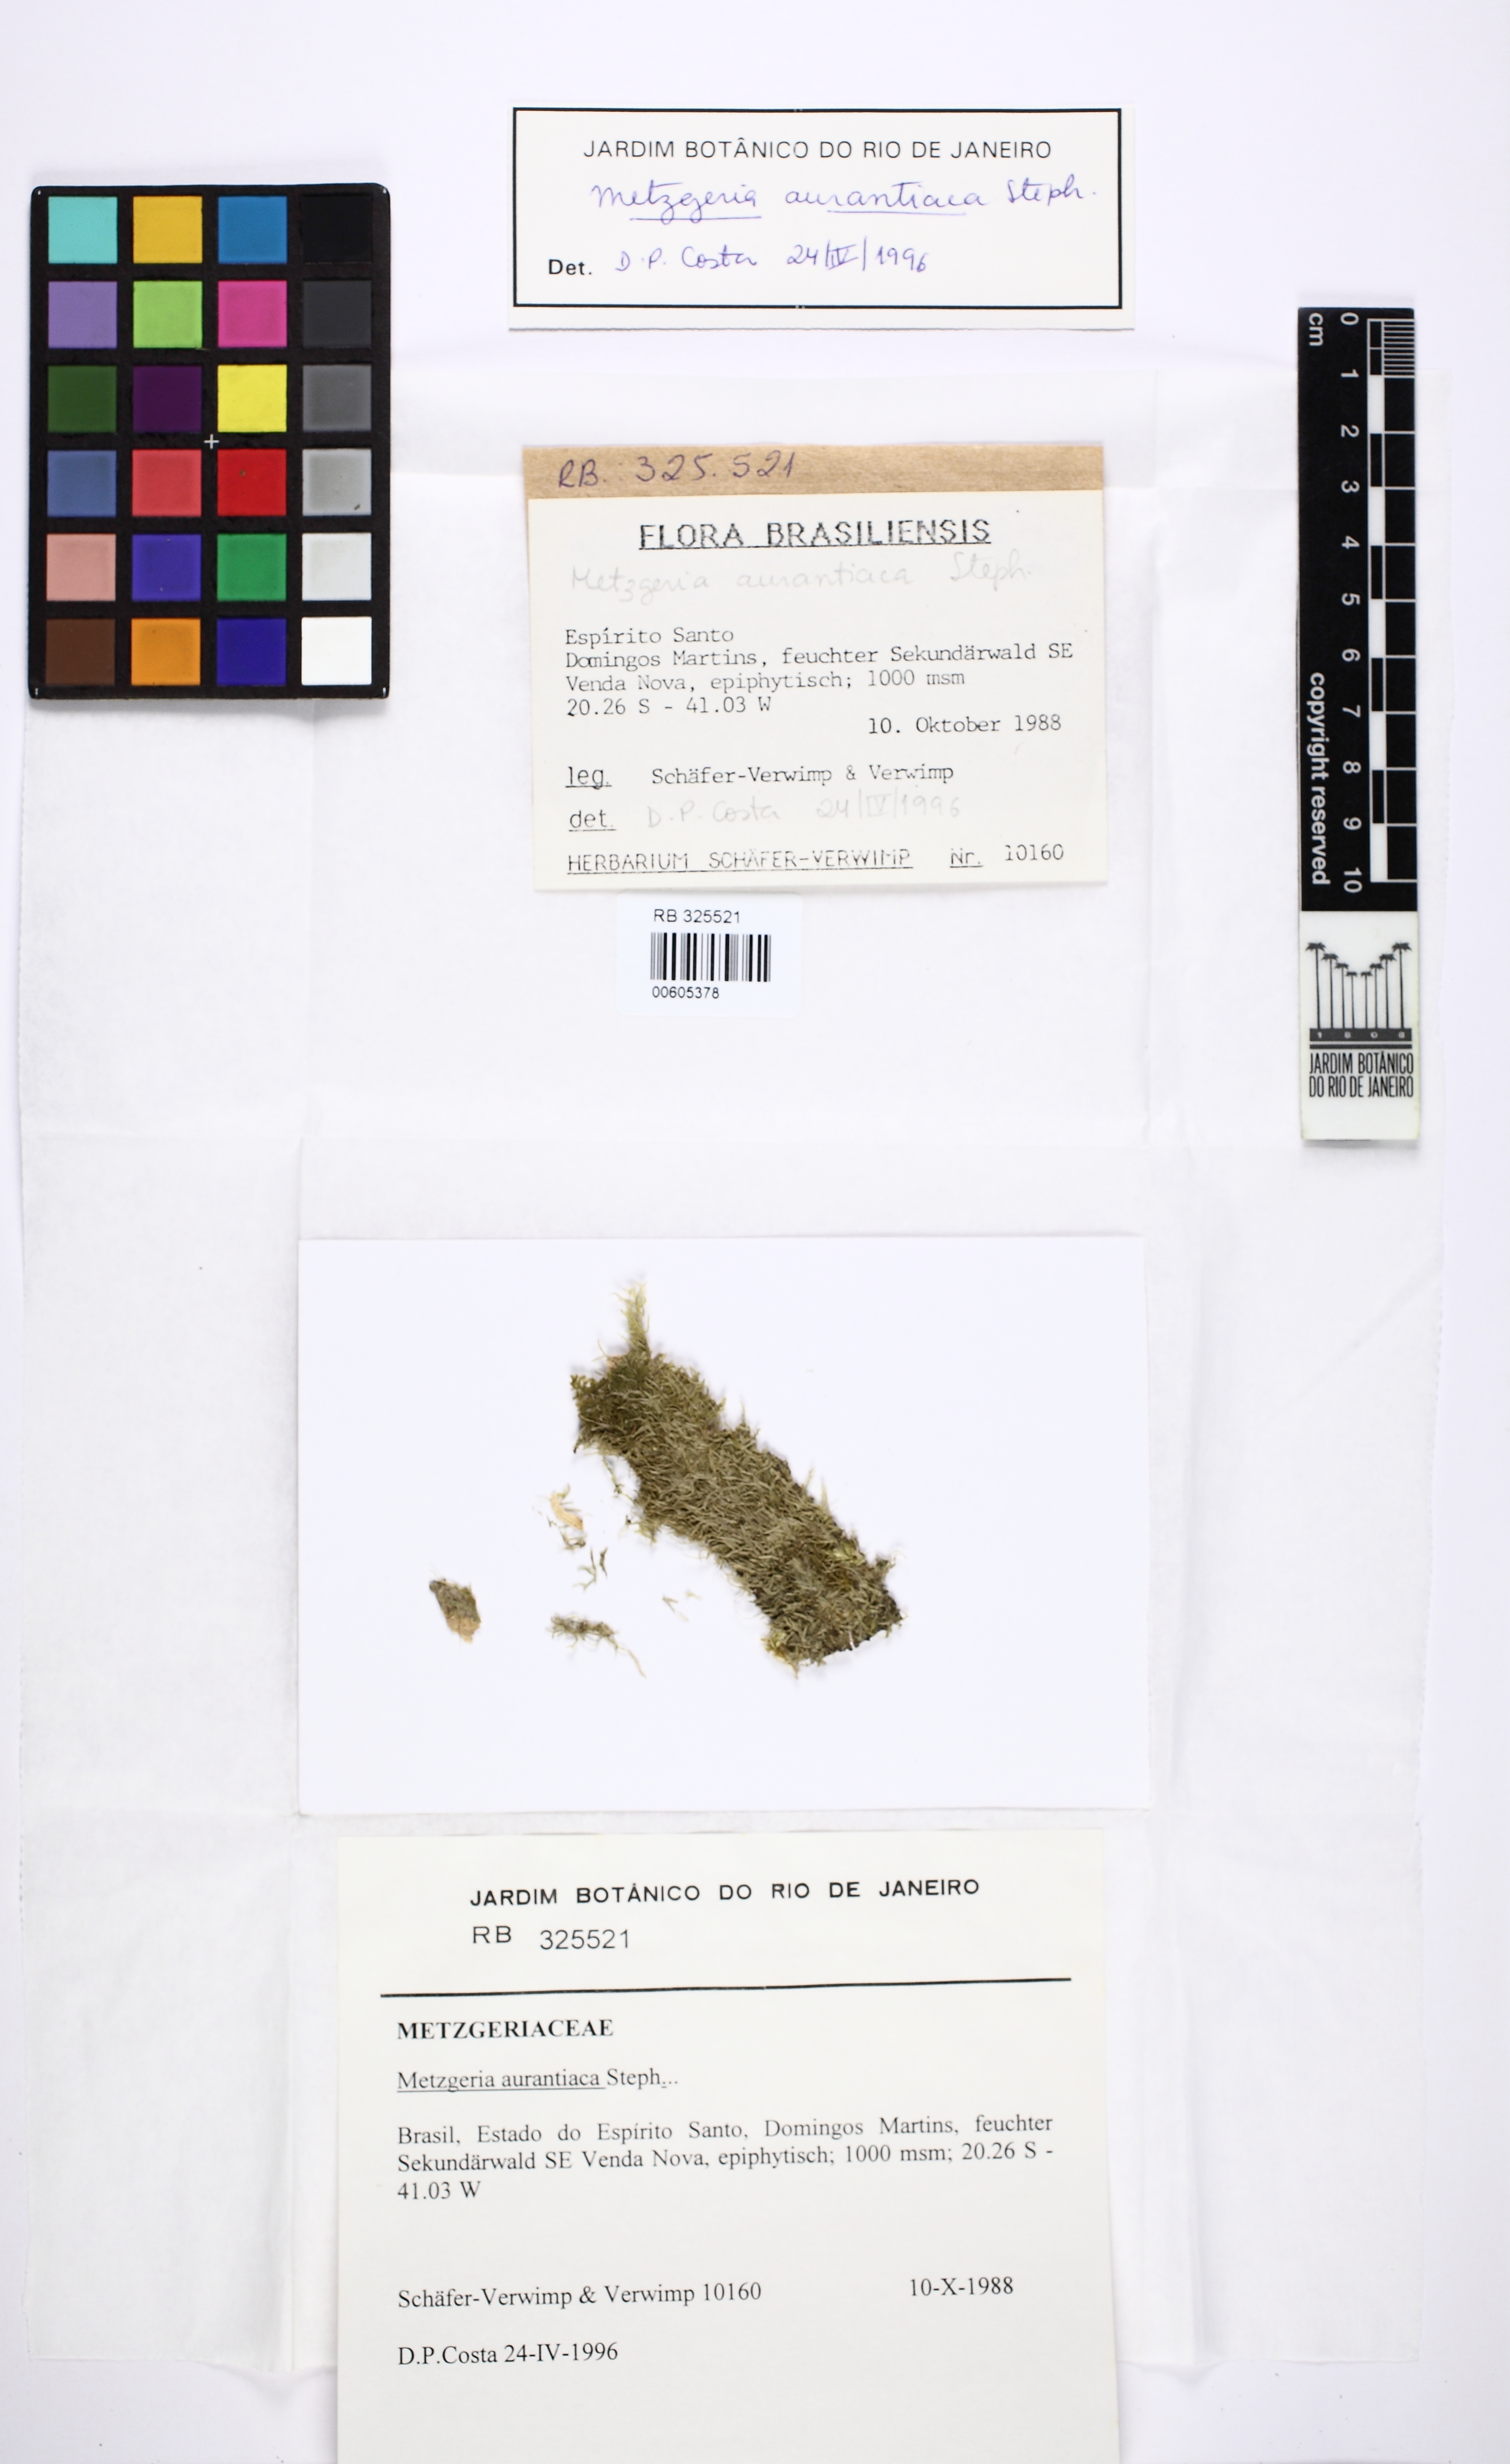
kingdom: Plantae
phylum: Marchantiophyta
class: Jungermanniopsida
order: Metzgeriales
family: Metzgeriaceae
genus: Metzgeria
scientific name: Metzgeria aurantiaca
